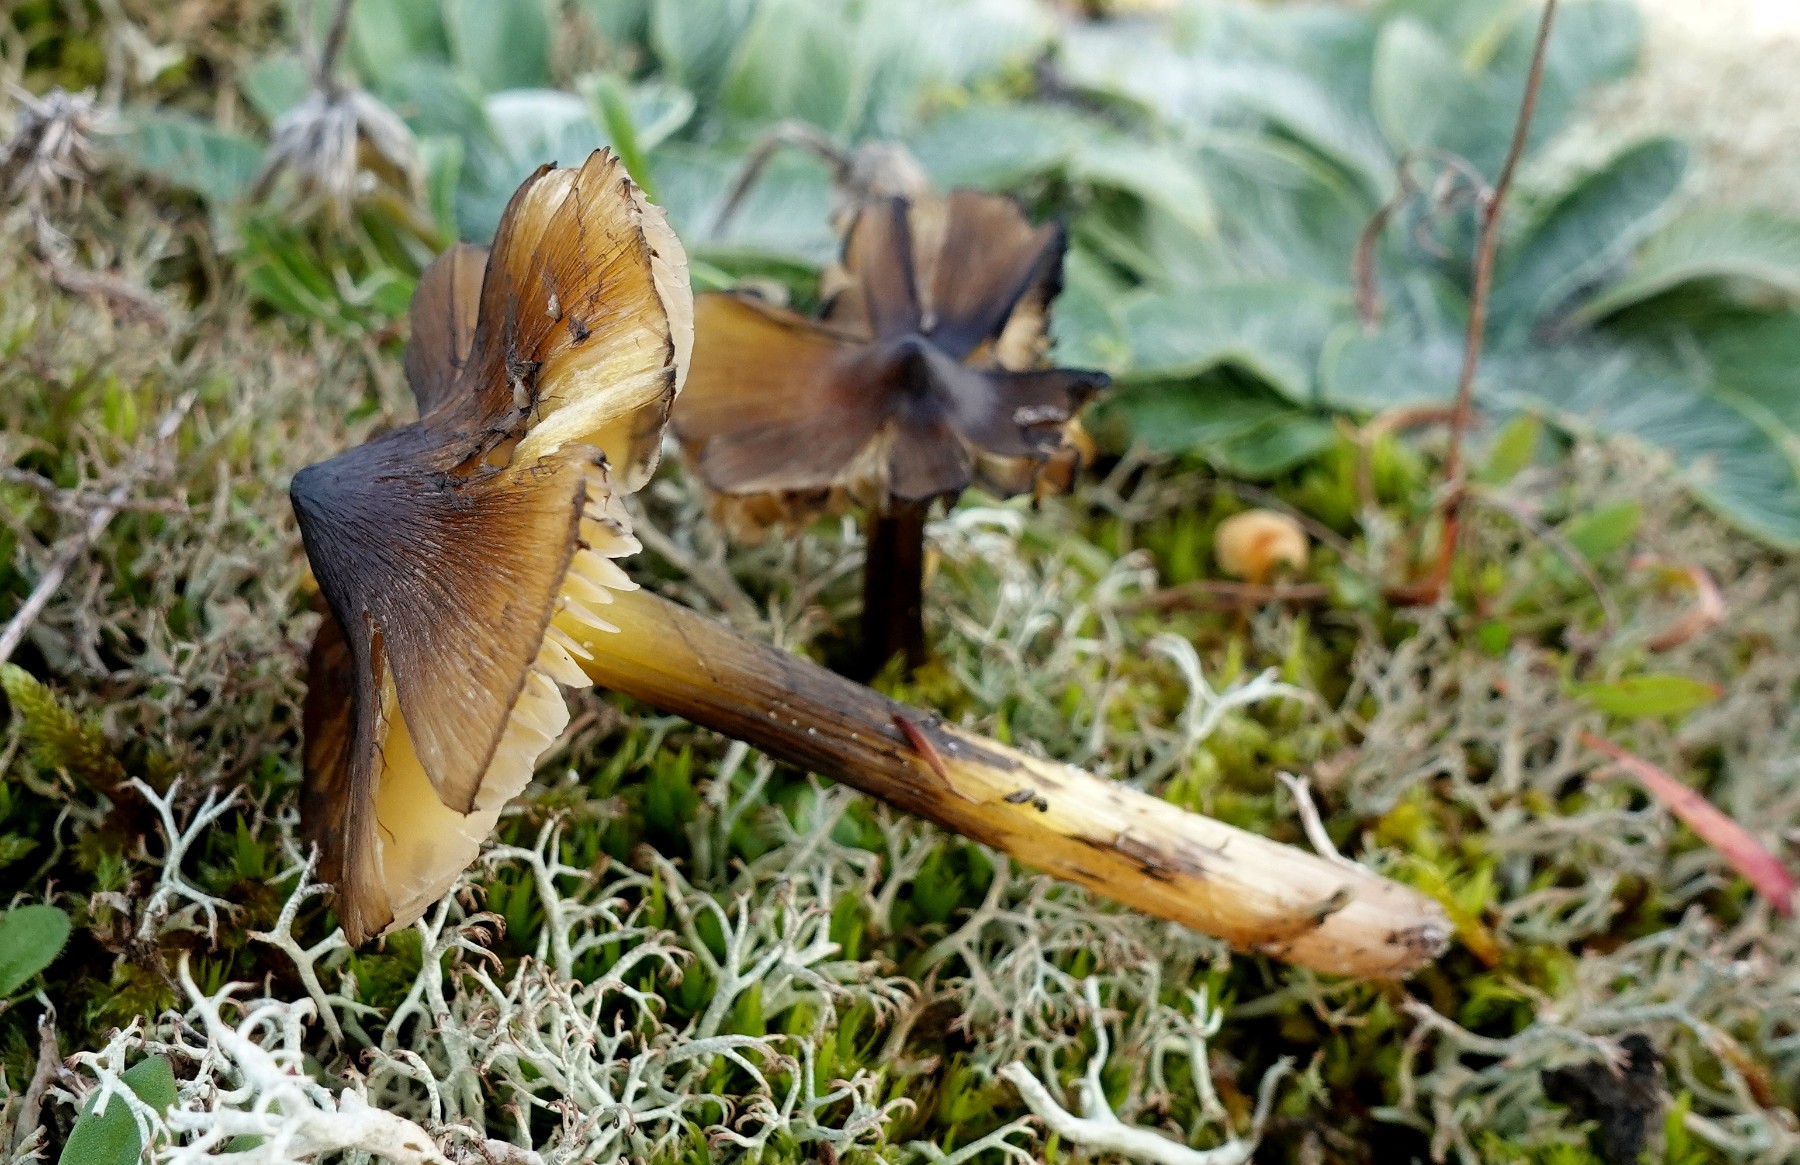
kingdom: Fungi
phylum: Basidiomycota
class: Agaricomycetes
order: Agaricales
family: Hygrophoraceae
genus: Hygrocybe
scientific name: Hygrocybe conica
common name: kegle-vokshat
